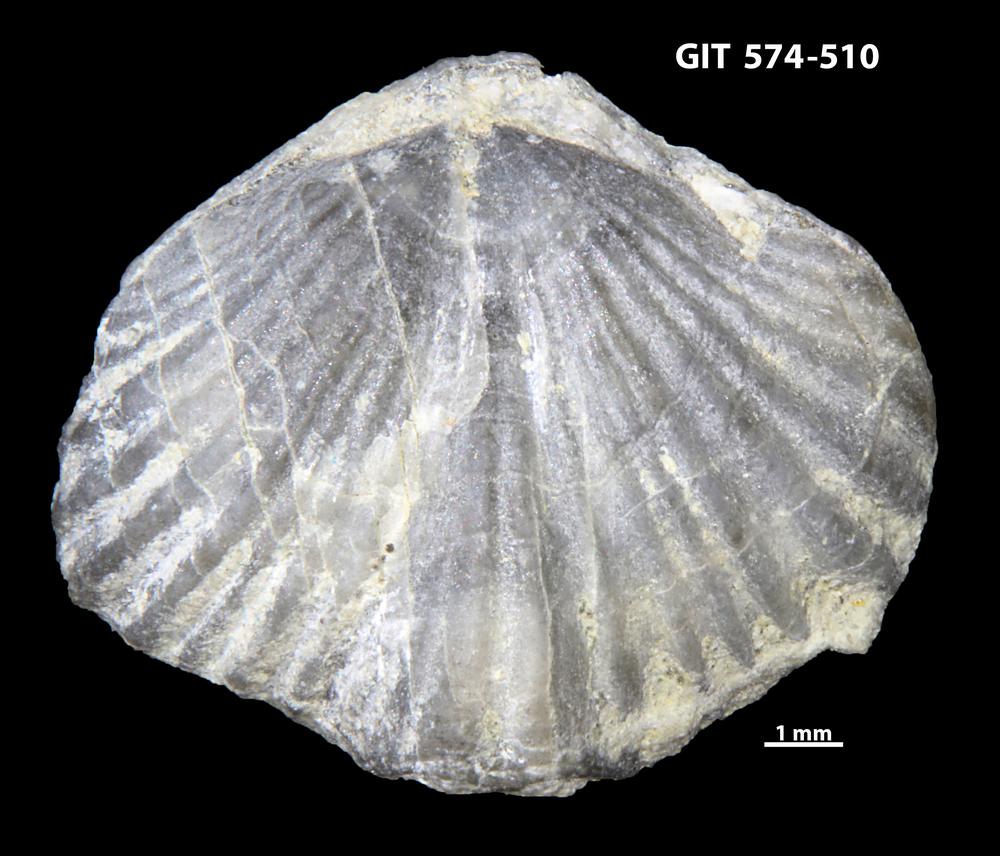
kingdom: Animalia
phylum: Brachiopoda
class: Rhynchonellata
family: Atrypinidae
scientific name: Atrypinidae
